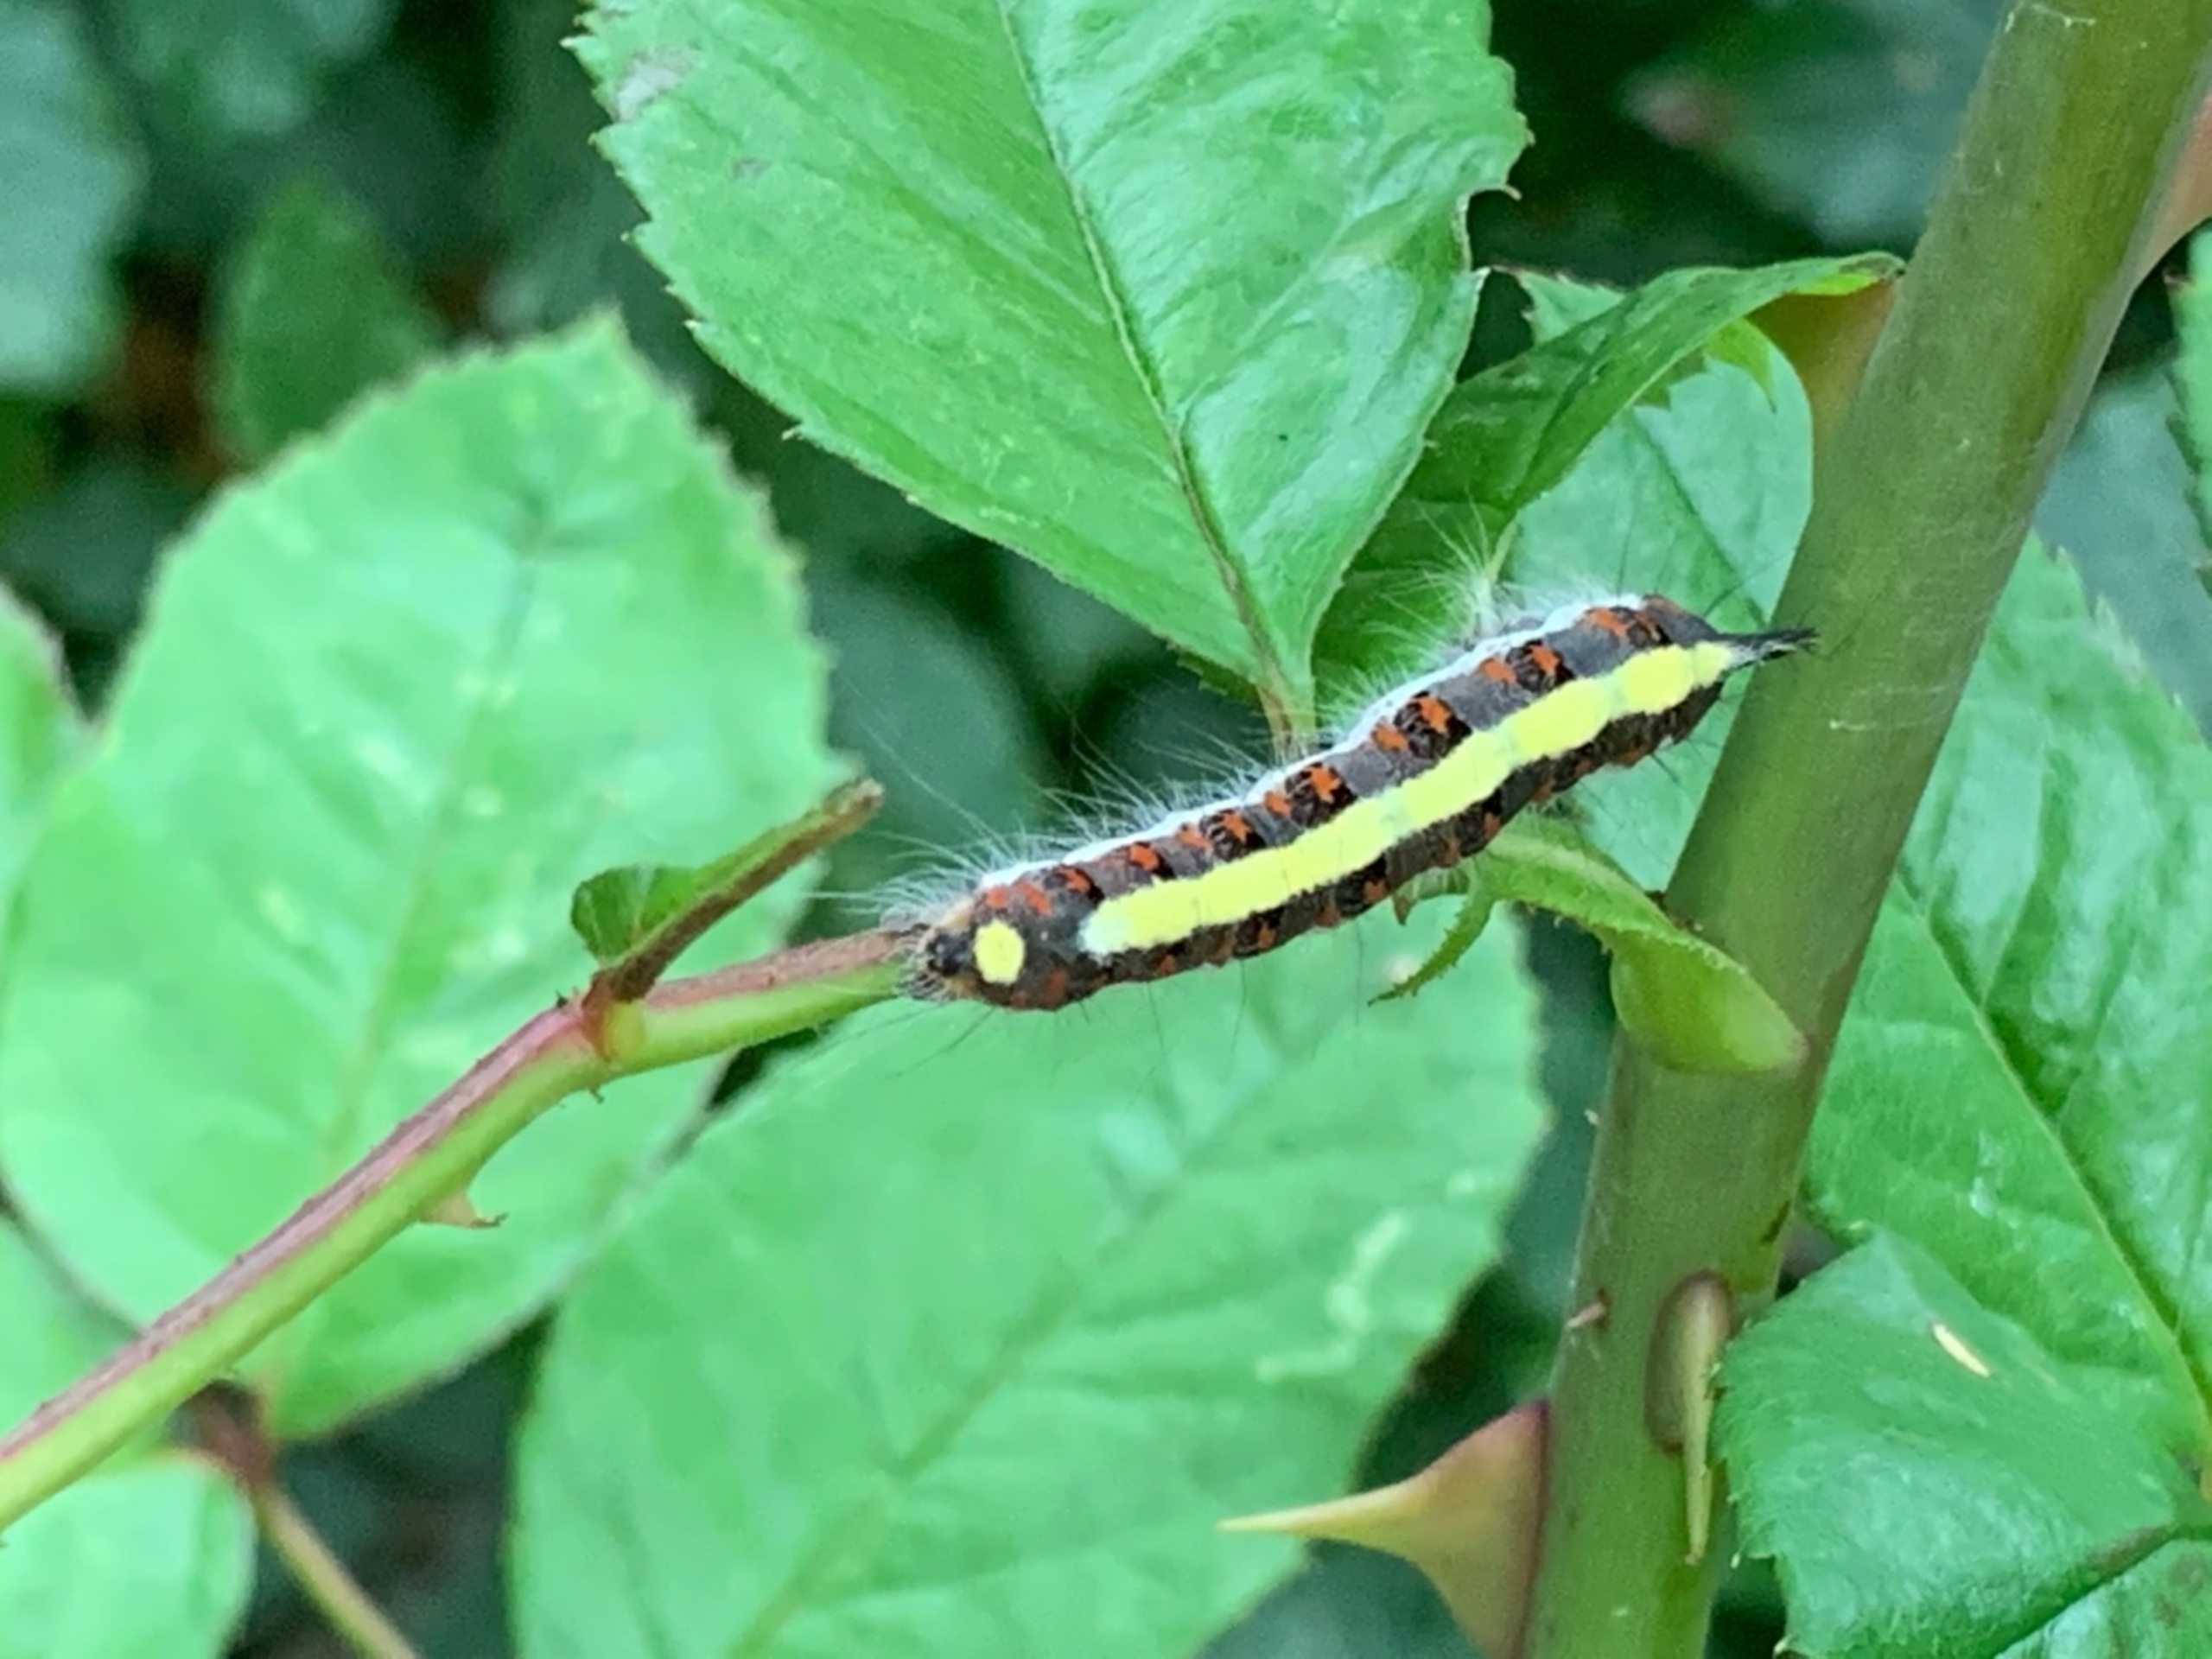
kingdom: Animalia
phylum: Arthropoda
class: Insecta
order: Lepidoptera
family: Noctuidae
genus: Acronicta
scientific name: Acronicta psi
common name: Psi-ugle
